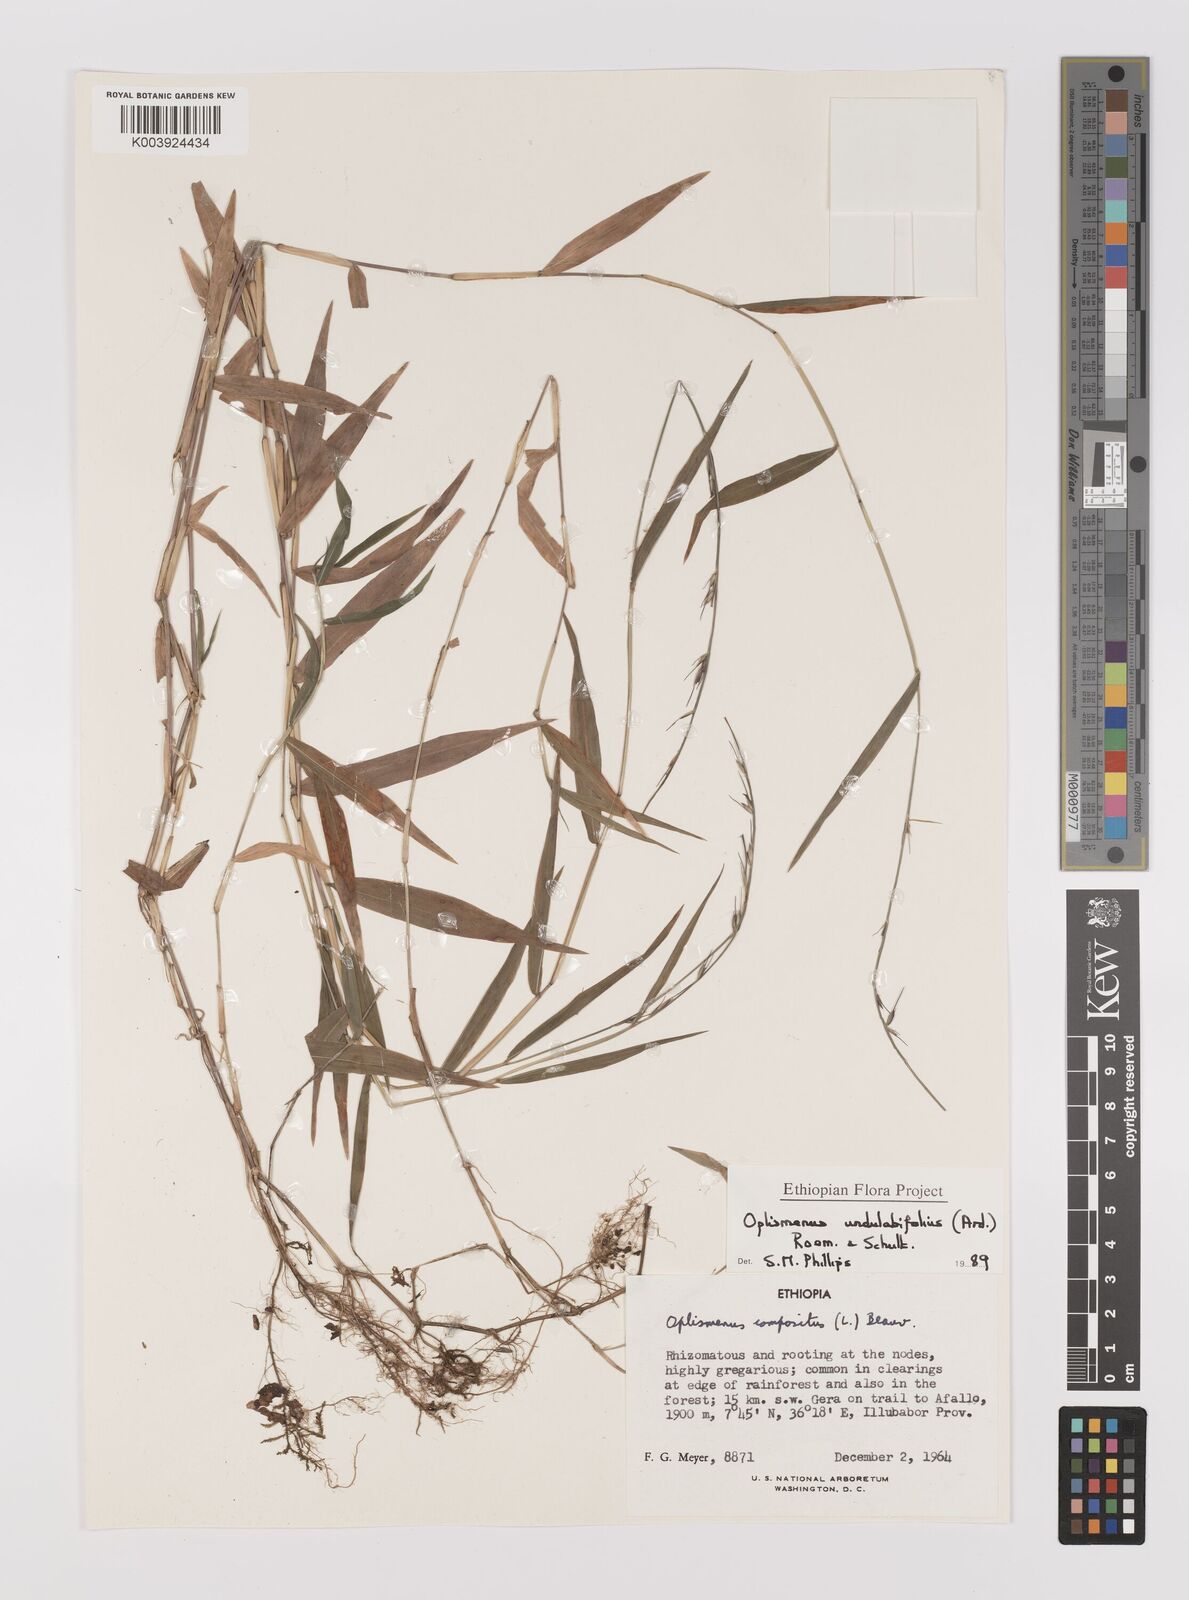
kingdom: Plantae
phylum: Tracheophyta
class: Liliopsida
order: Poales
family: Poaceae
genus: Oplismenus
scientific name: Oplismenus undulatifolius
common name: Wavyleaf basketgrass
